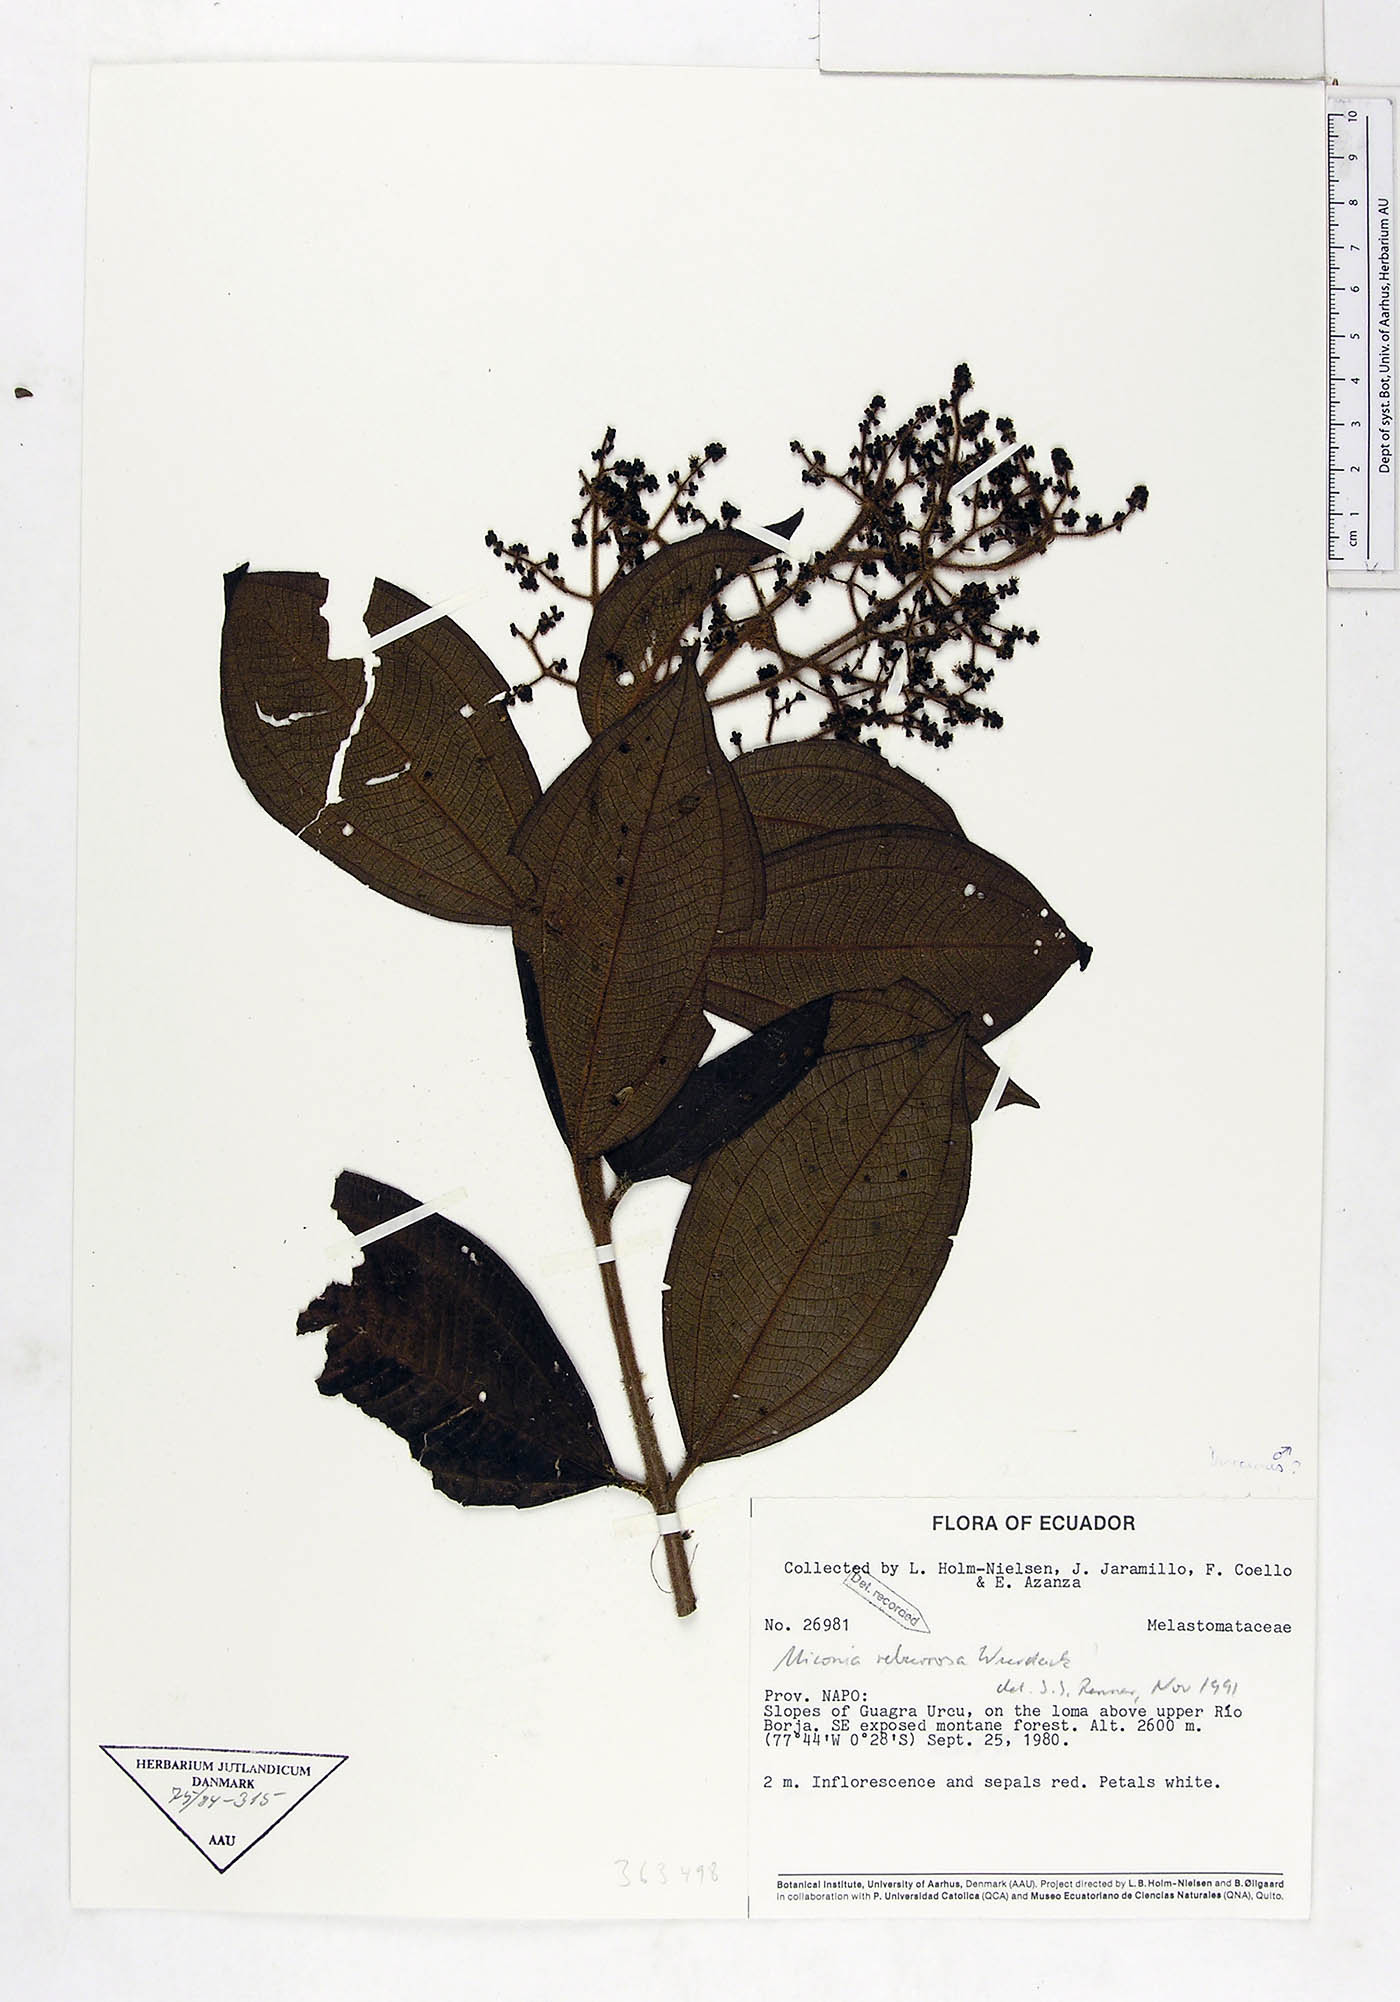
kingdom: Plantae
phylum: Tracheophyta
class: Magnoliopsida
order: Myrtales
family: Melastomataceae
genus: Miconia
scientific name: Miconia reburrosa
